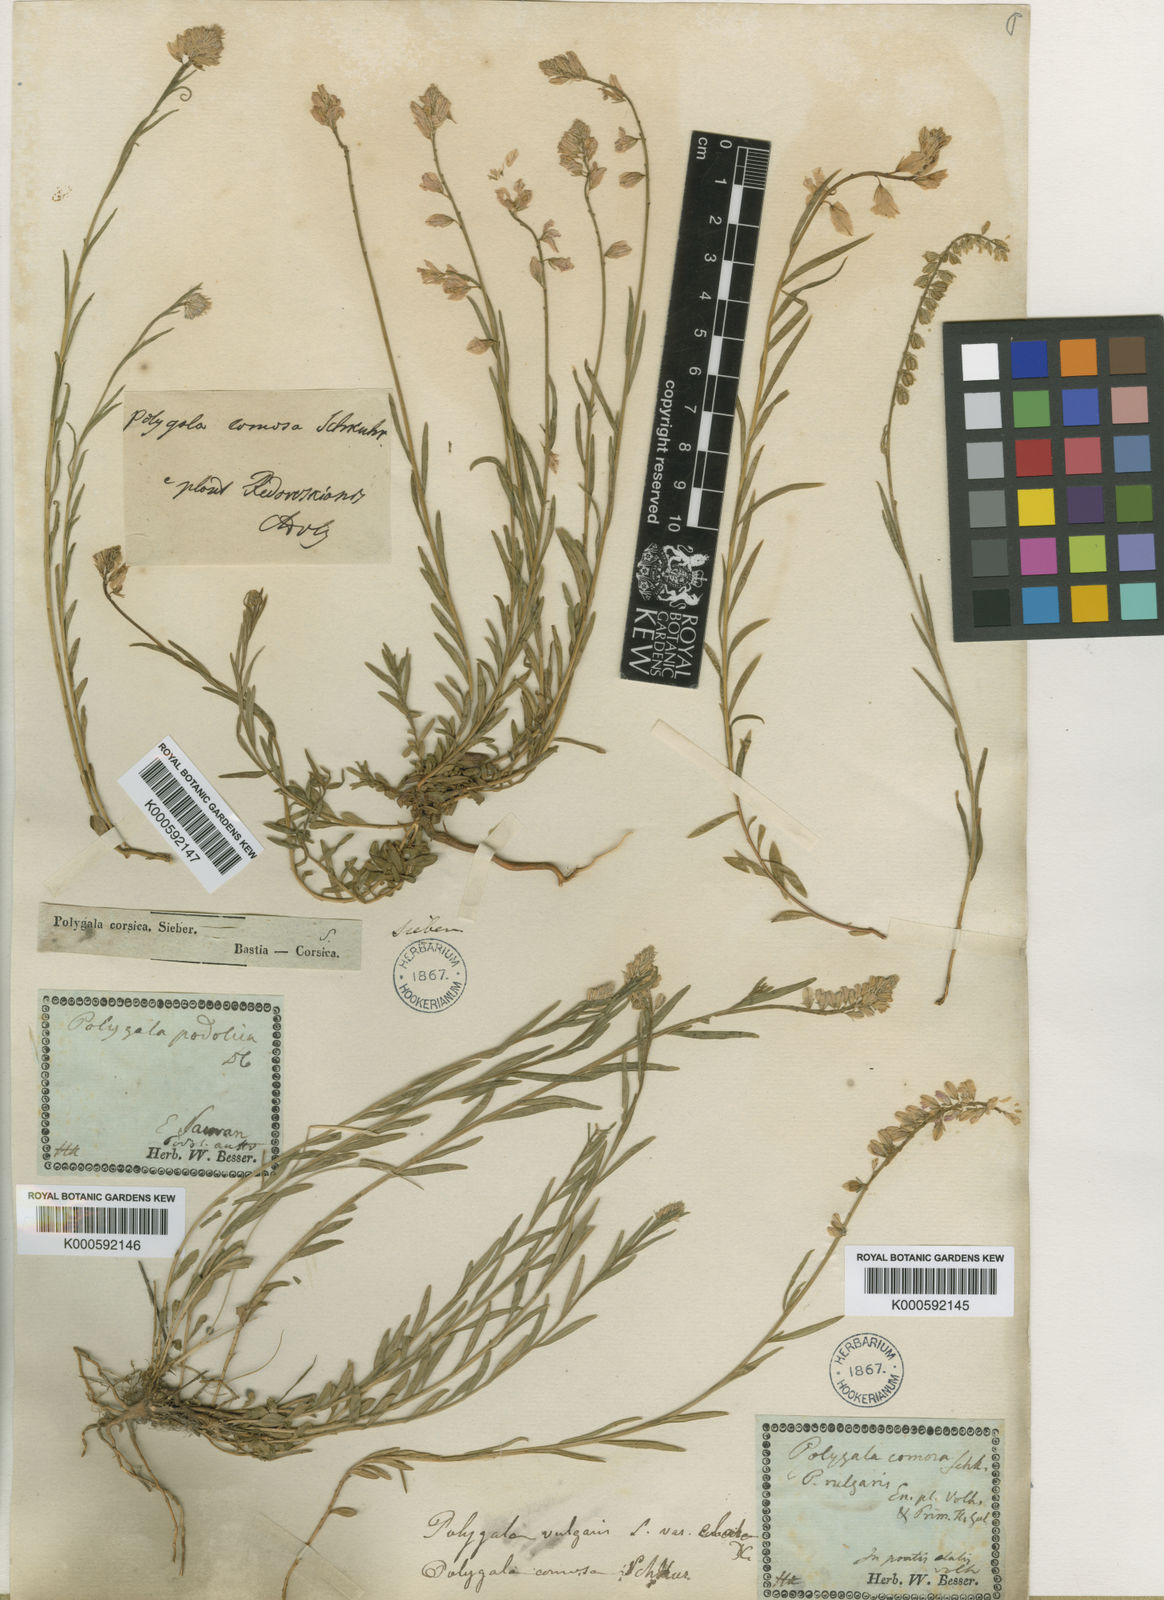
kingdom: Plantae
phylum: Tracheophyta
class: Magnoliopsida
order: Fabales
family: Polygalaceae
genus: Polygala
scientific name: Polygala rosea
